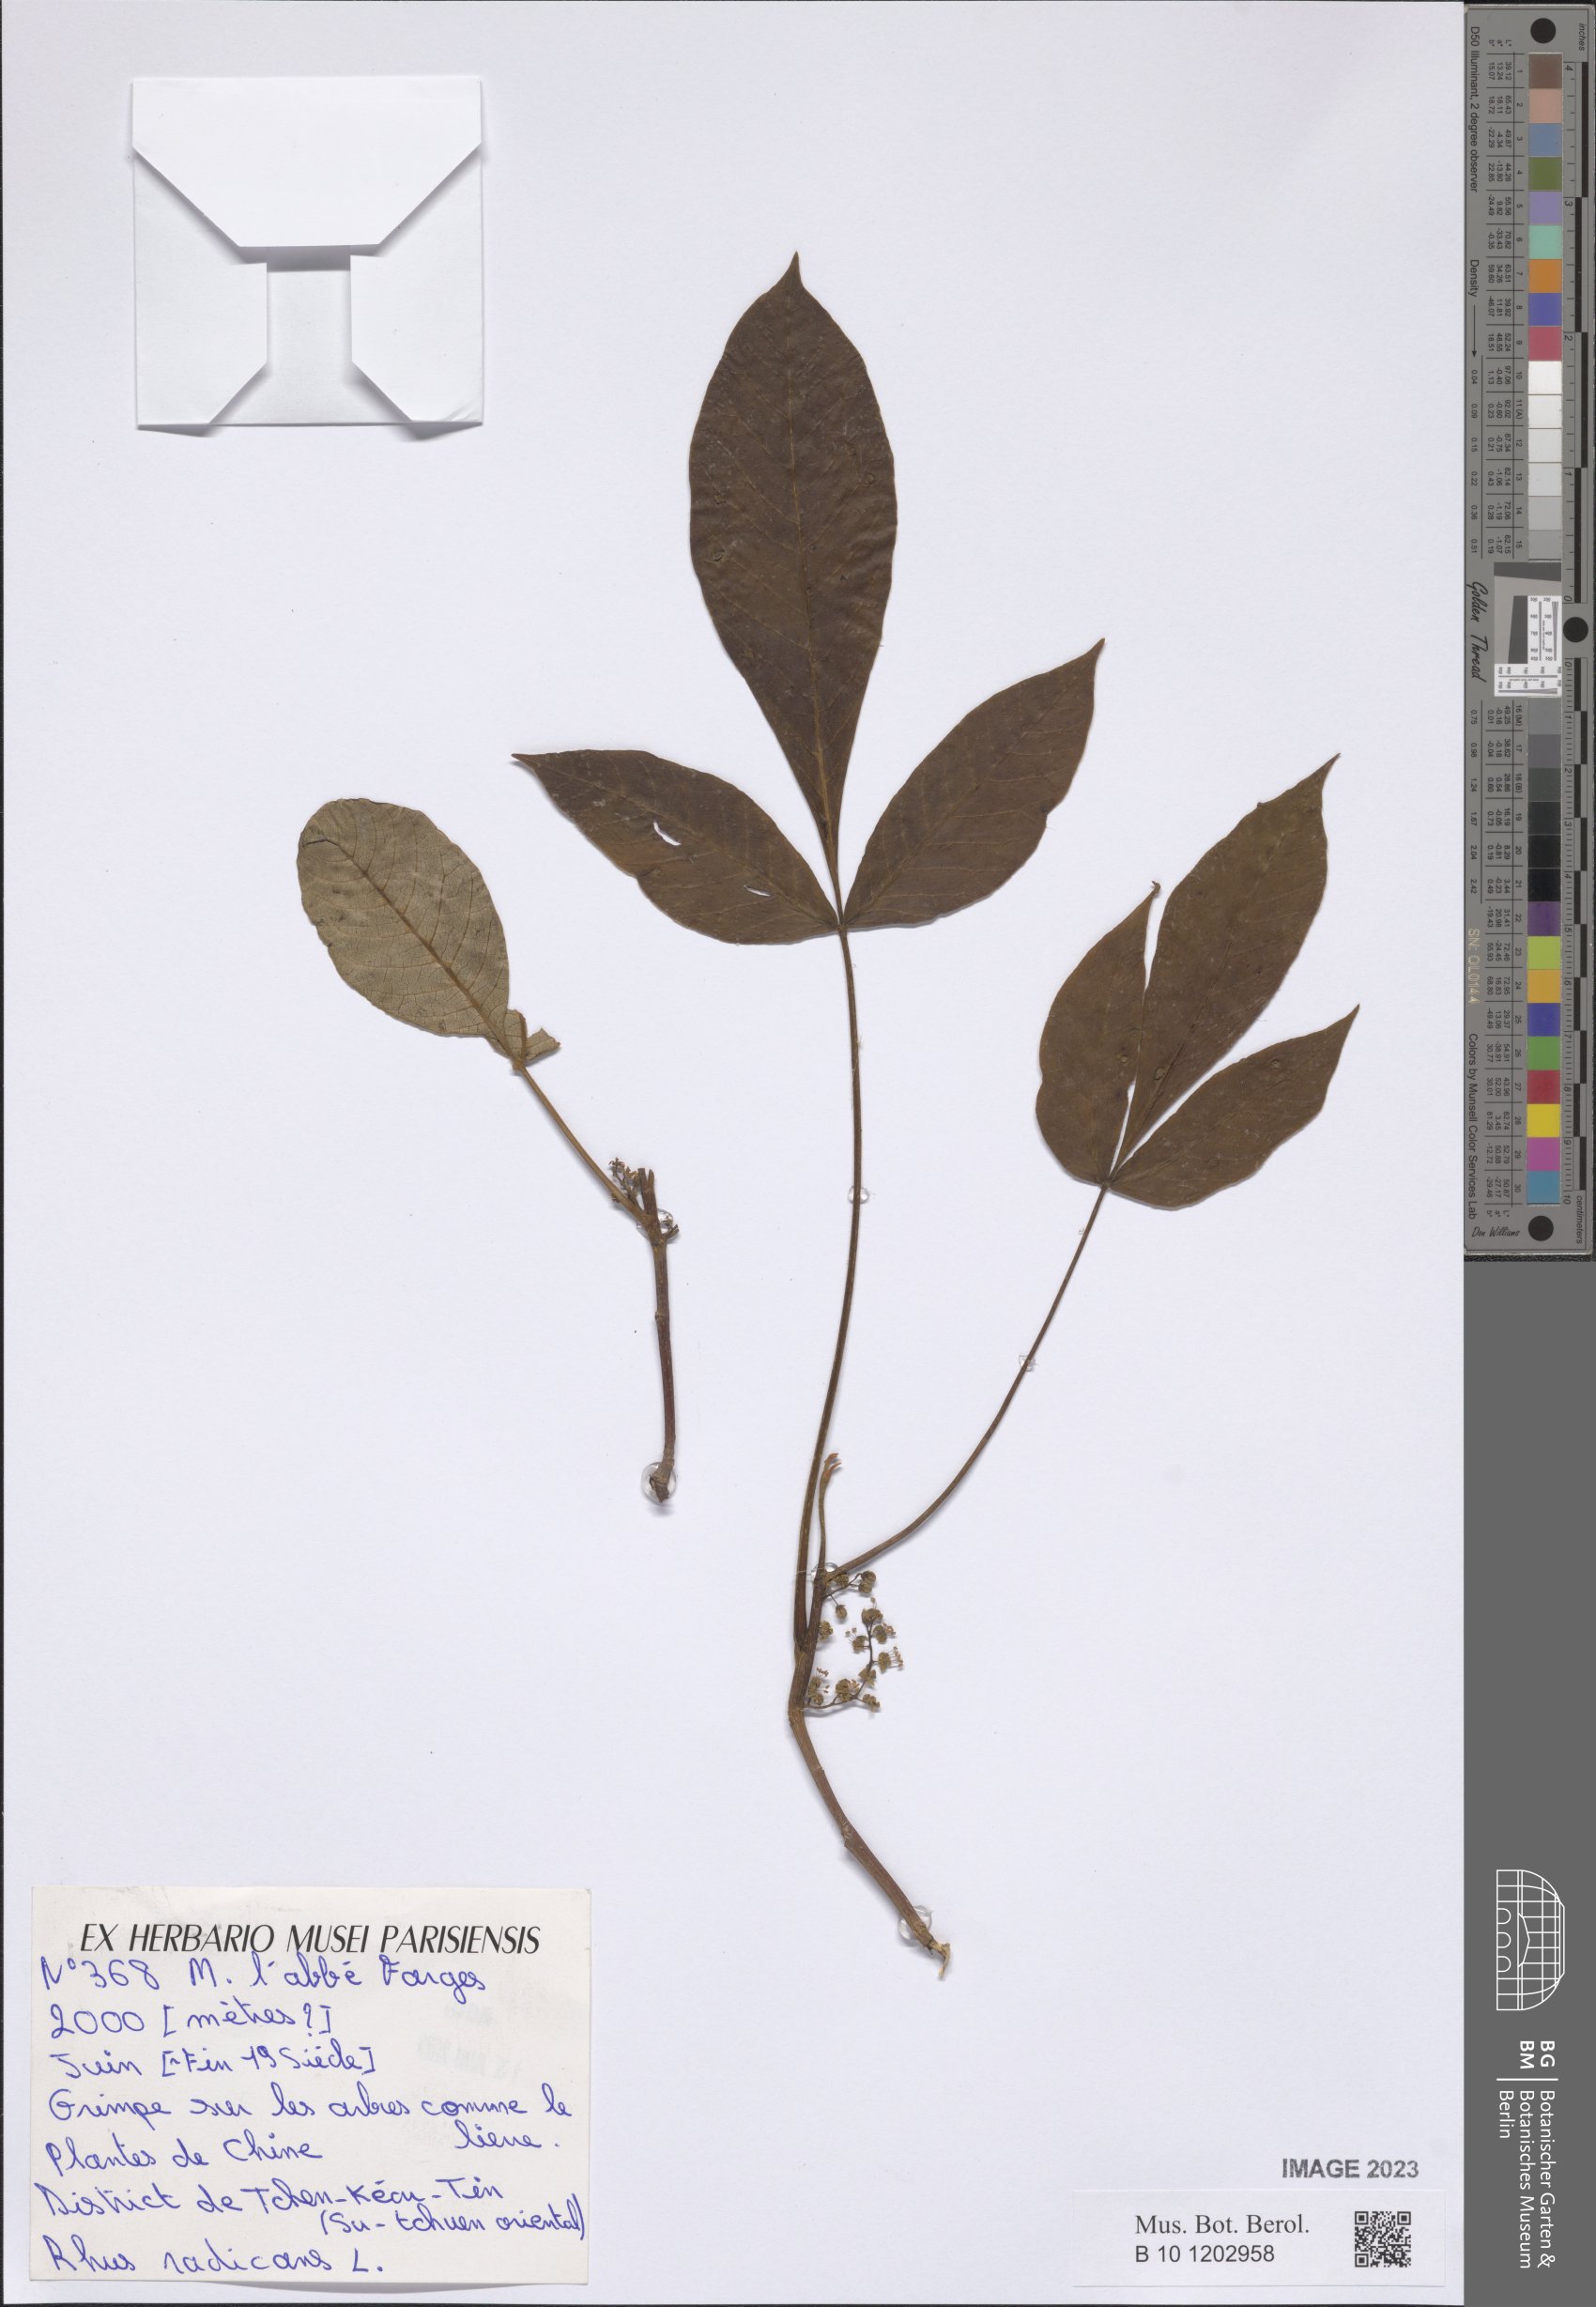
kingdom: Plantae
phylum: Tracheophyta
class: Magnoliopsida
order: Sapindales
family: Anacardiaceae
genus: Toxicodendron
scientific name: Toxicodendron radicans
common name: Poison ivy
